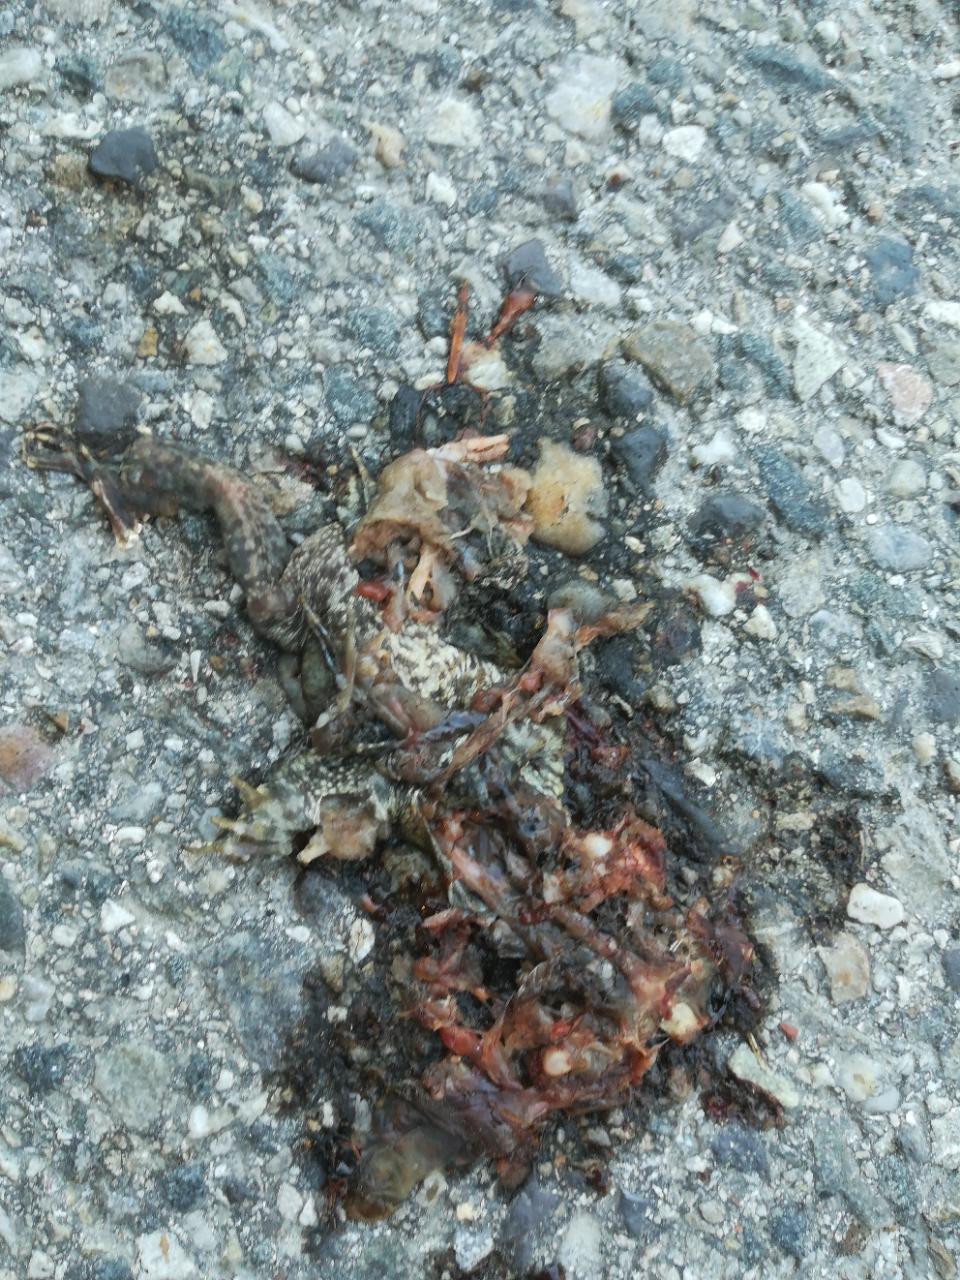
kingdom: Animalia
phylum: Chordata
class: Amphibia
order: Anura
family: Bufonidae
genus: Bufo
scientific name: Bufo bufo
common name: Common toad
